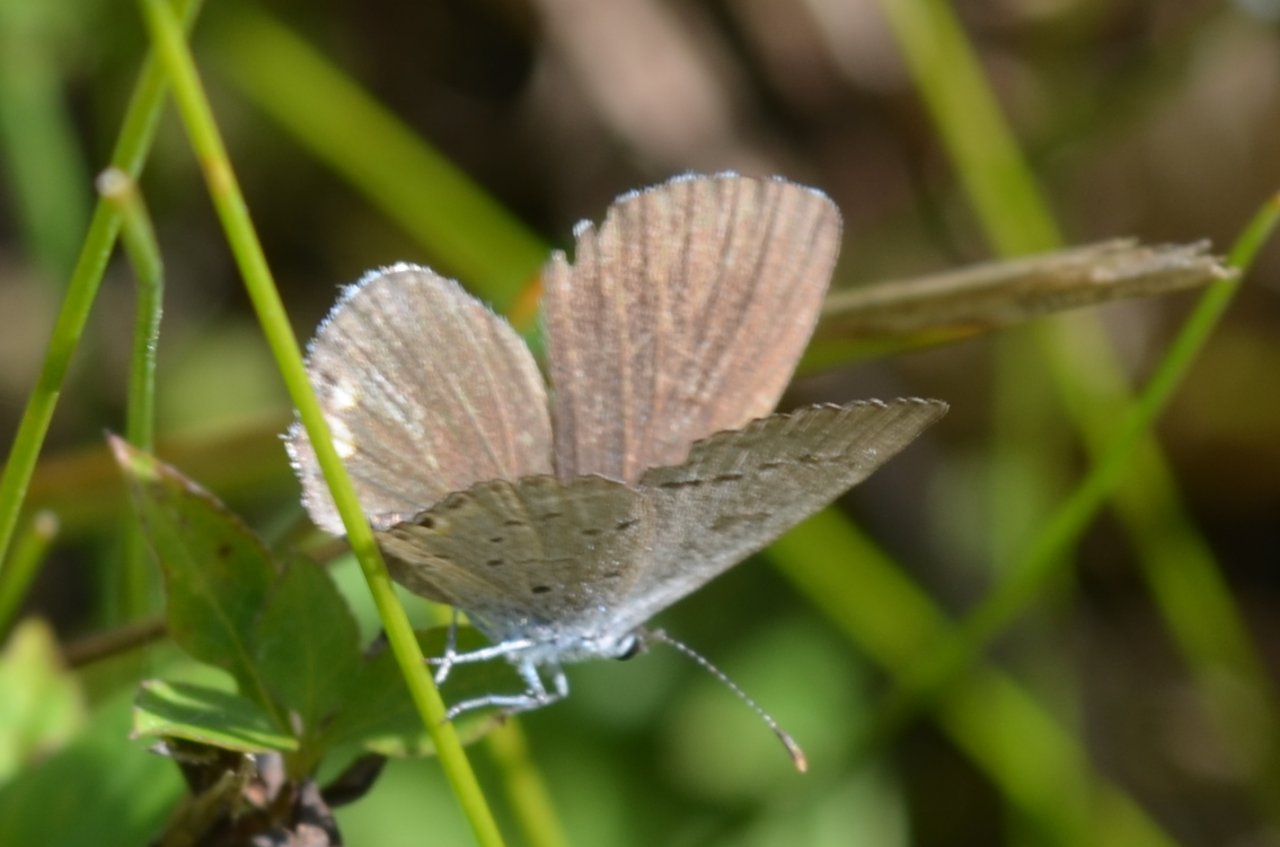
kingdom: Animalia
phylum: Arthropoda
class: Insecta
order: Lepidoptera
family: Lycaenidae
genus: Elkalyce
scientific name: Elkalyce comyntas
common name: Eastern Tailed-Blue
